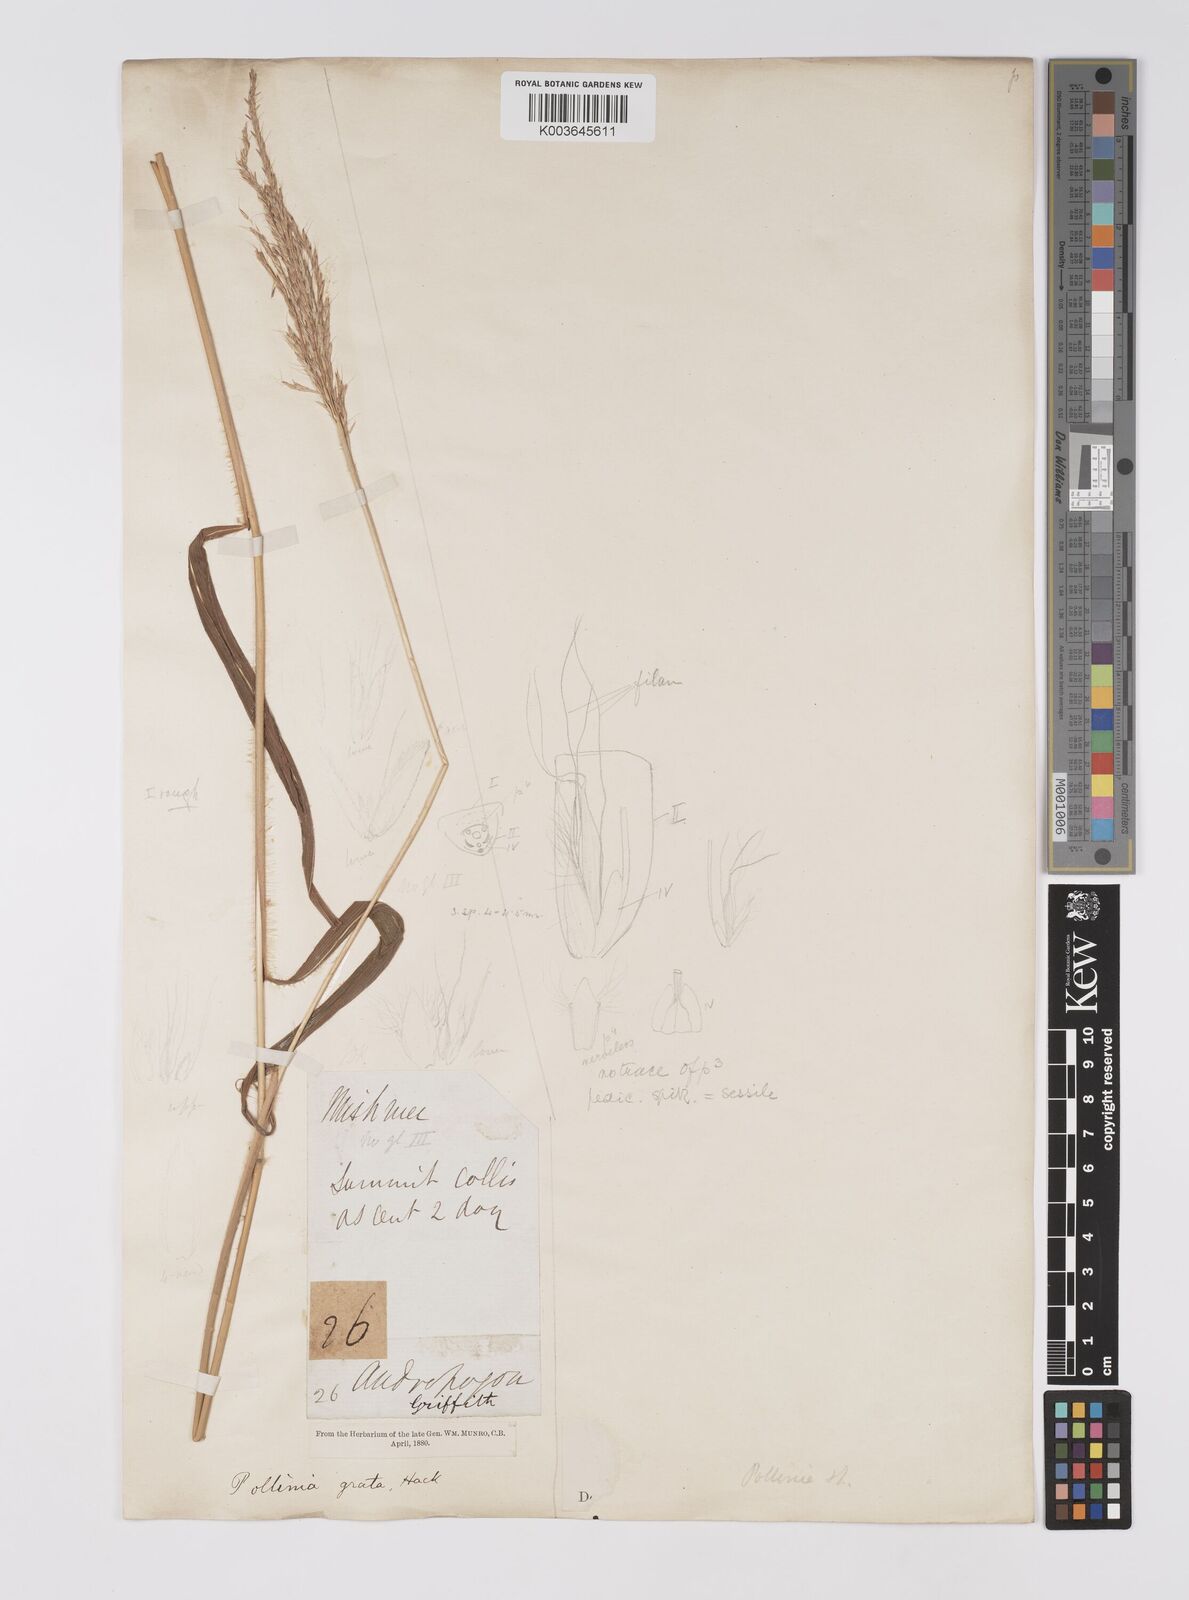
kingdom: Plantae
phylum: Tracheophyta
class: Liliopsida
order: Poales
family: Poaceae
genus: Microstegium
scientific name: Microstegium fasciculatum
